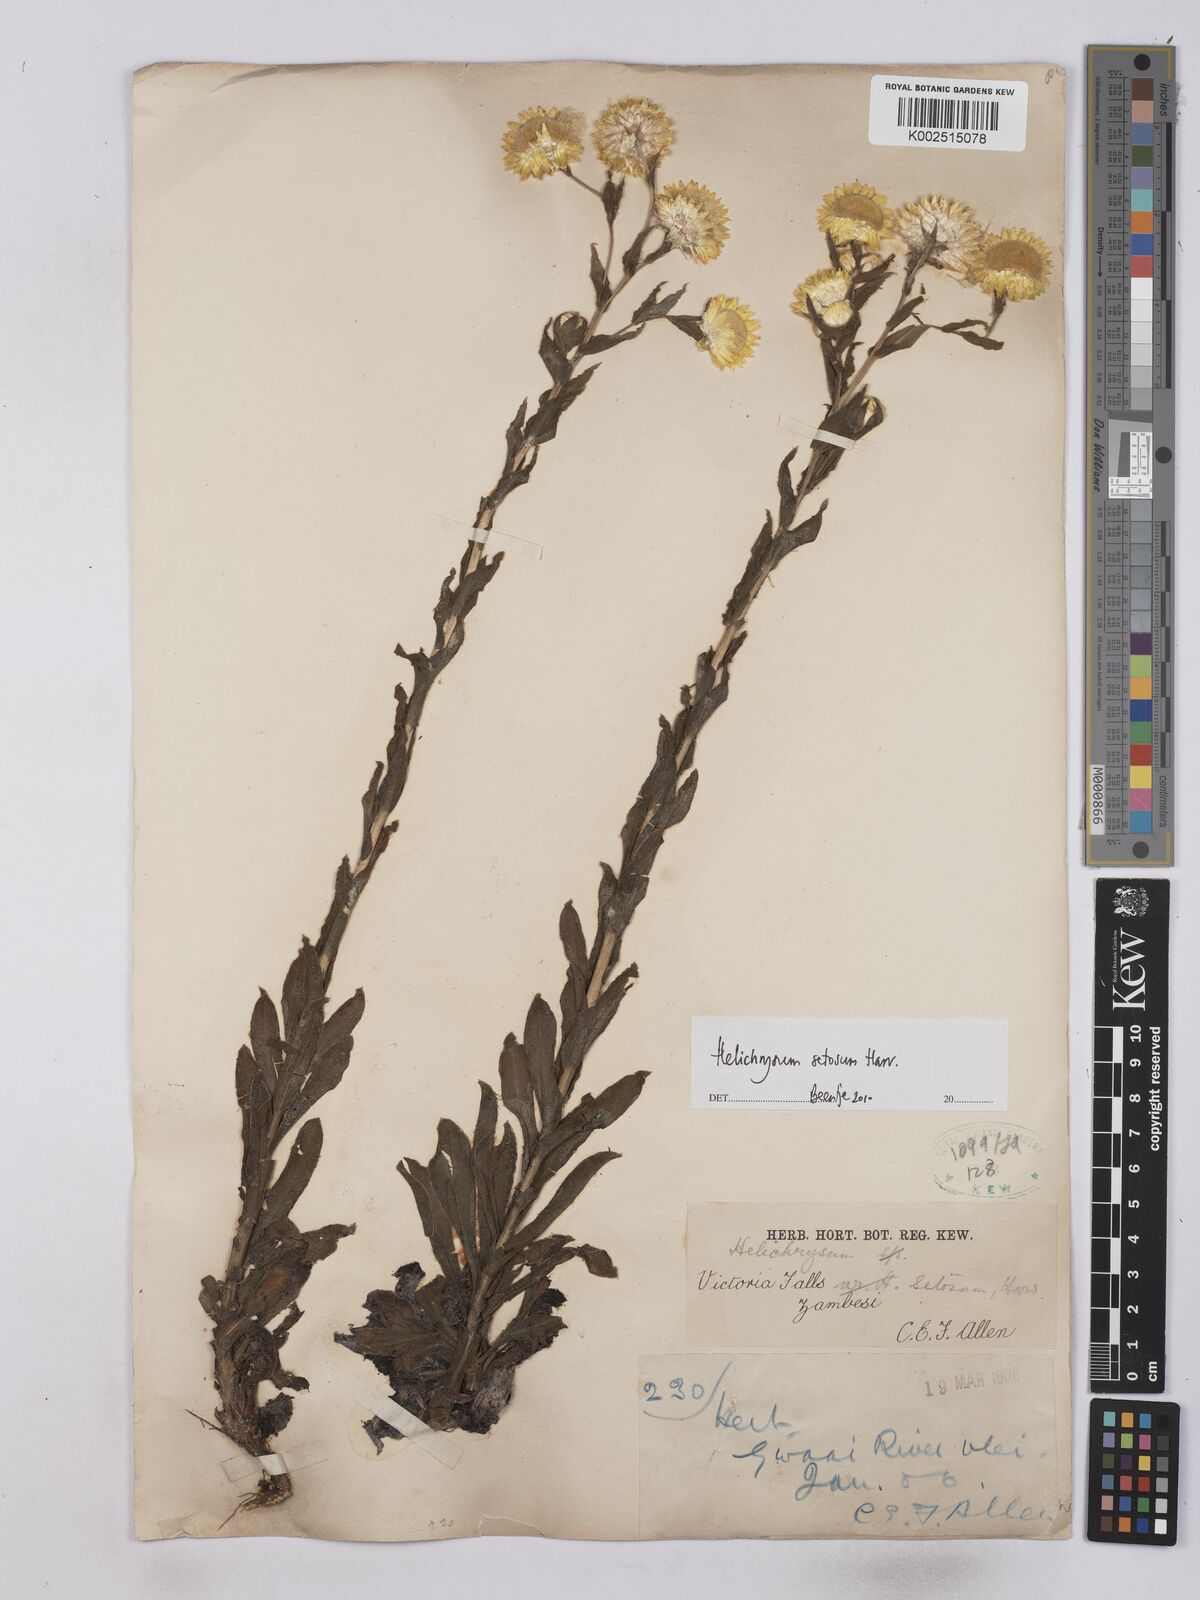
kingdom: Plantae
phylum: Tracheophyta
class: Magnoliopsida
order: Asterales
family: Asteraceae
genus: Helichrysum
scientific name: Helichrysum setosum
